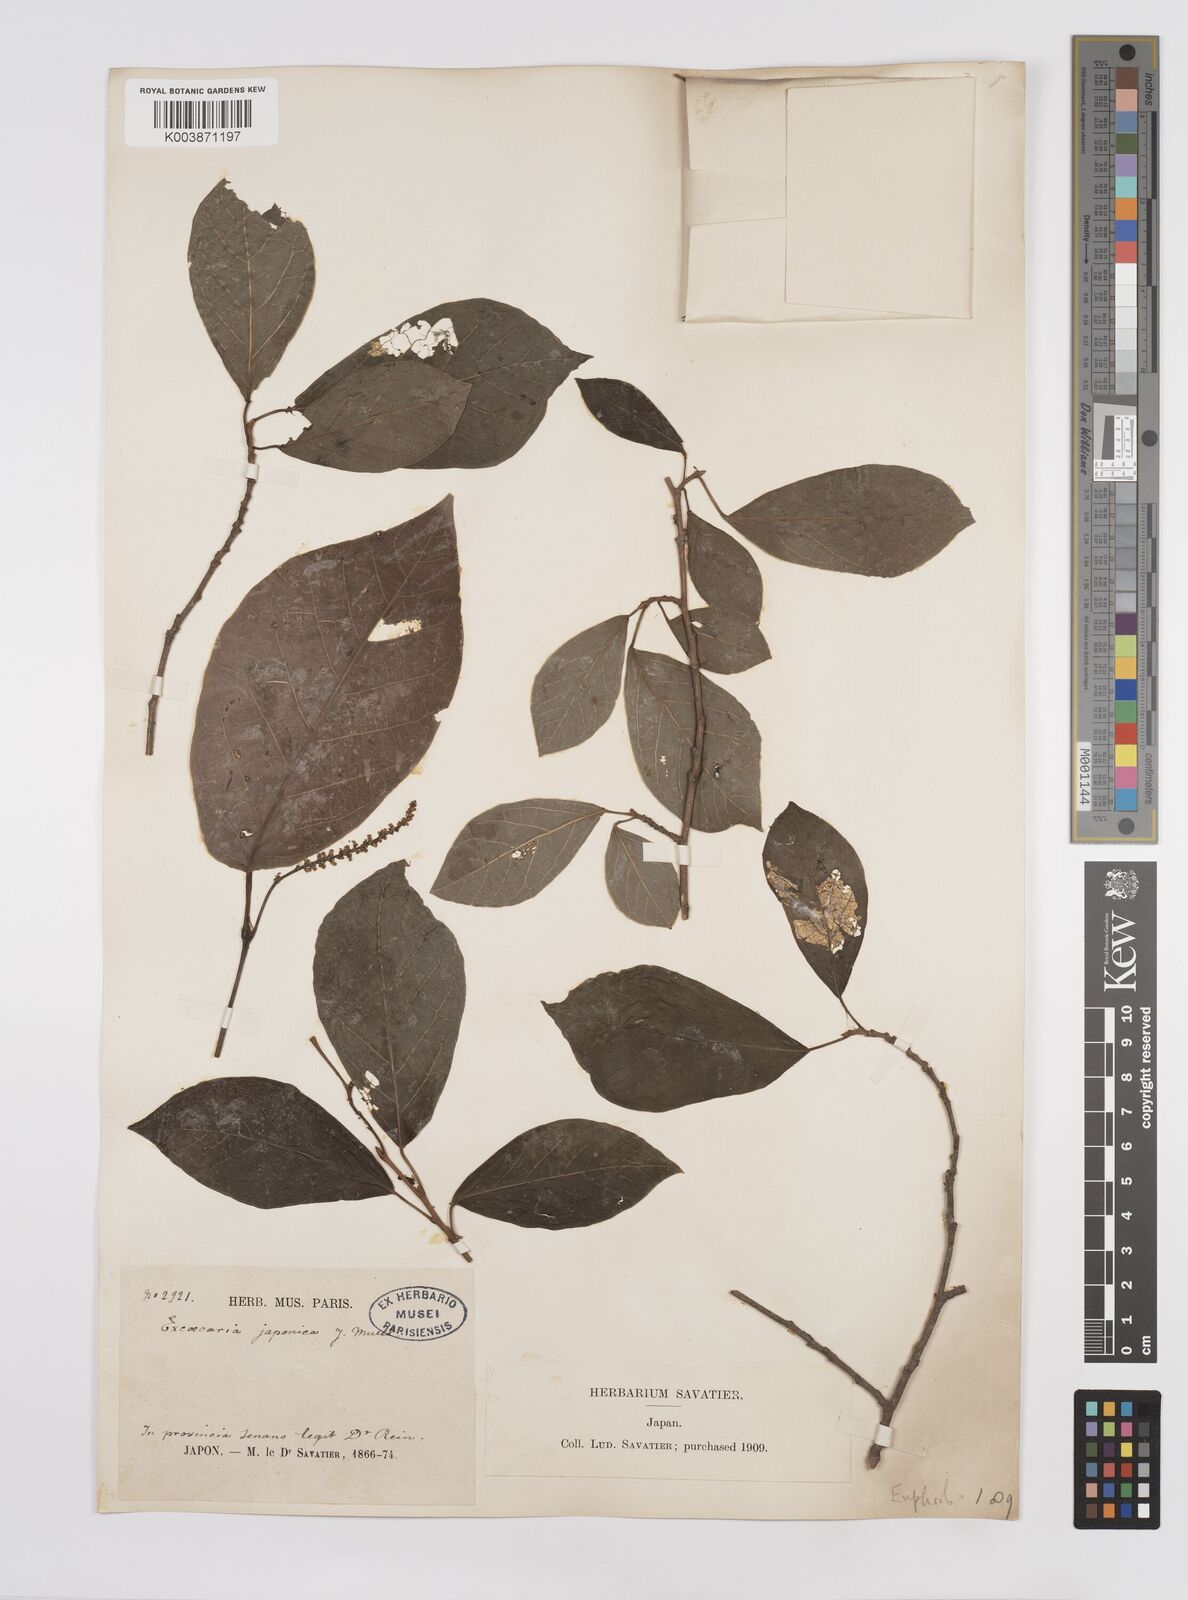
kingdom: Plantae
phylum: Tracheophyta
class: Magnoliopsida
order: Malpighiales
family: Euphorbiaceae
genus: Neoshirakia
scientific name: Neoshirakia japonica
